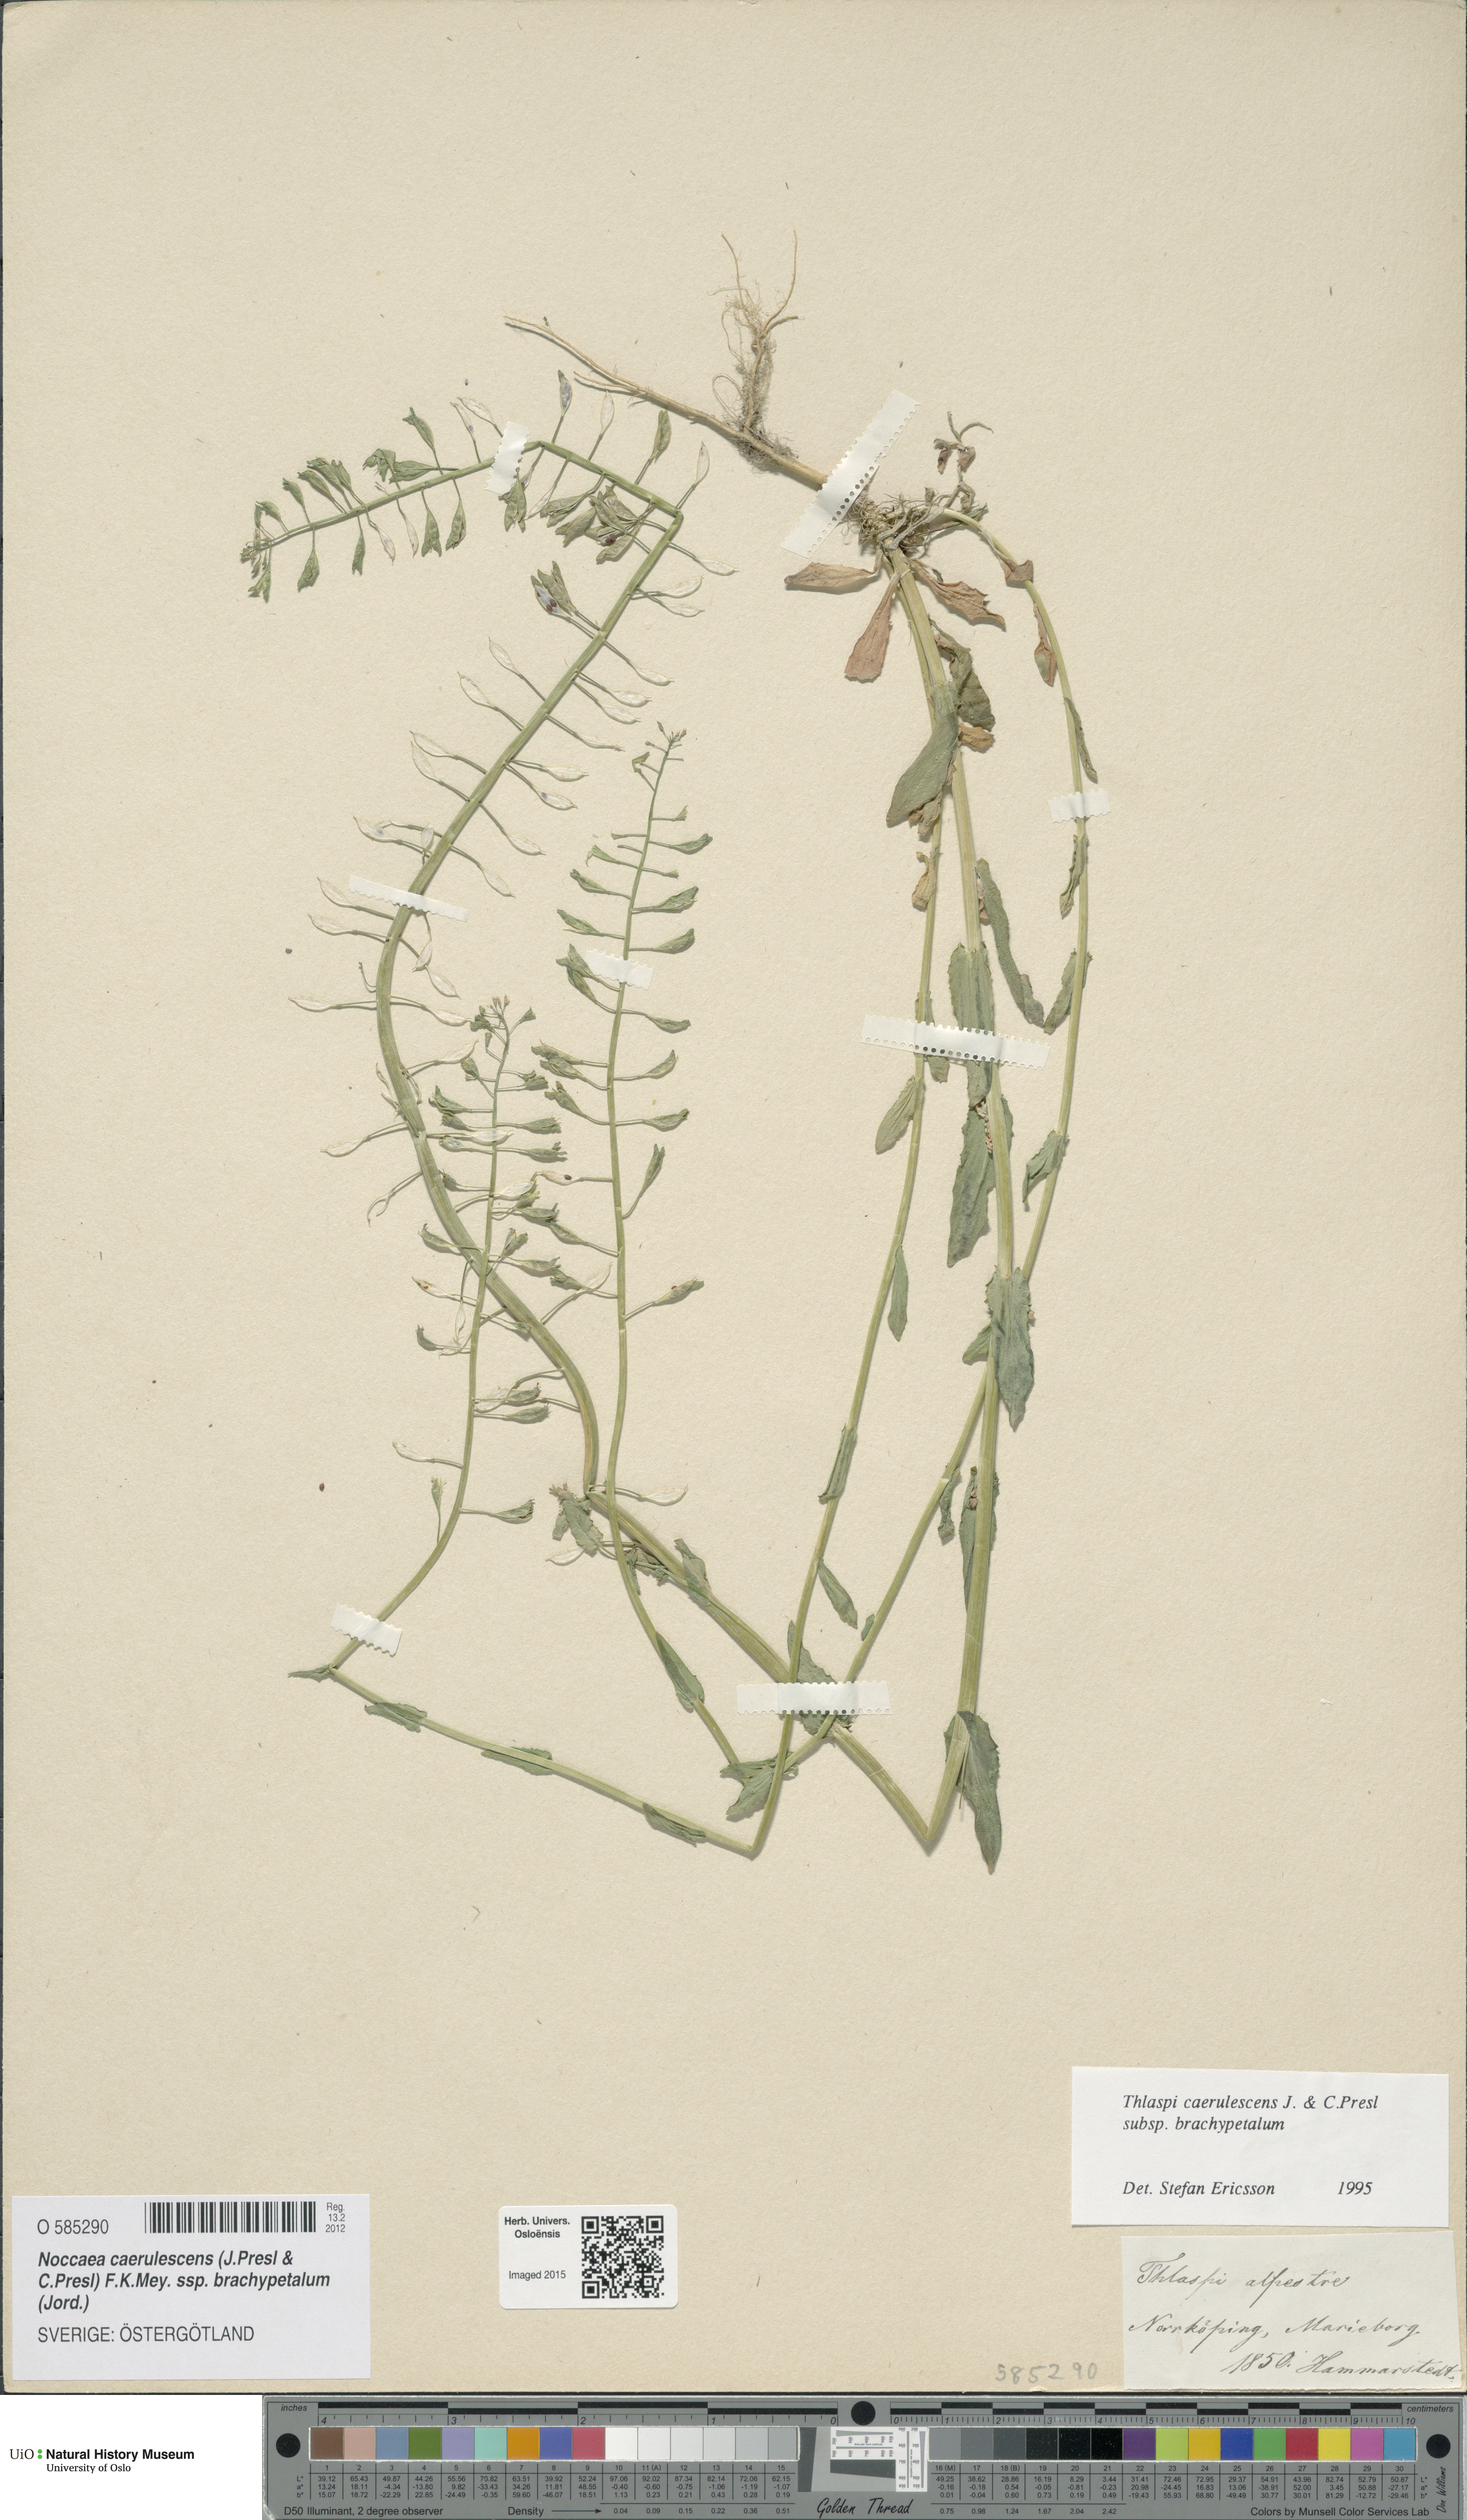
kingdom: Plantae
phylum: Tracheophyta
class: Magnoliopsida
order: Brassicales
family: Brassicaceae
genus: Noccaea
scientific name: Noccaea brachypetala
